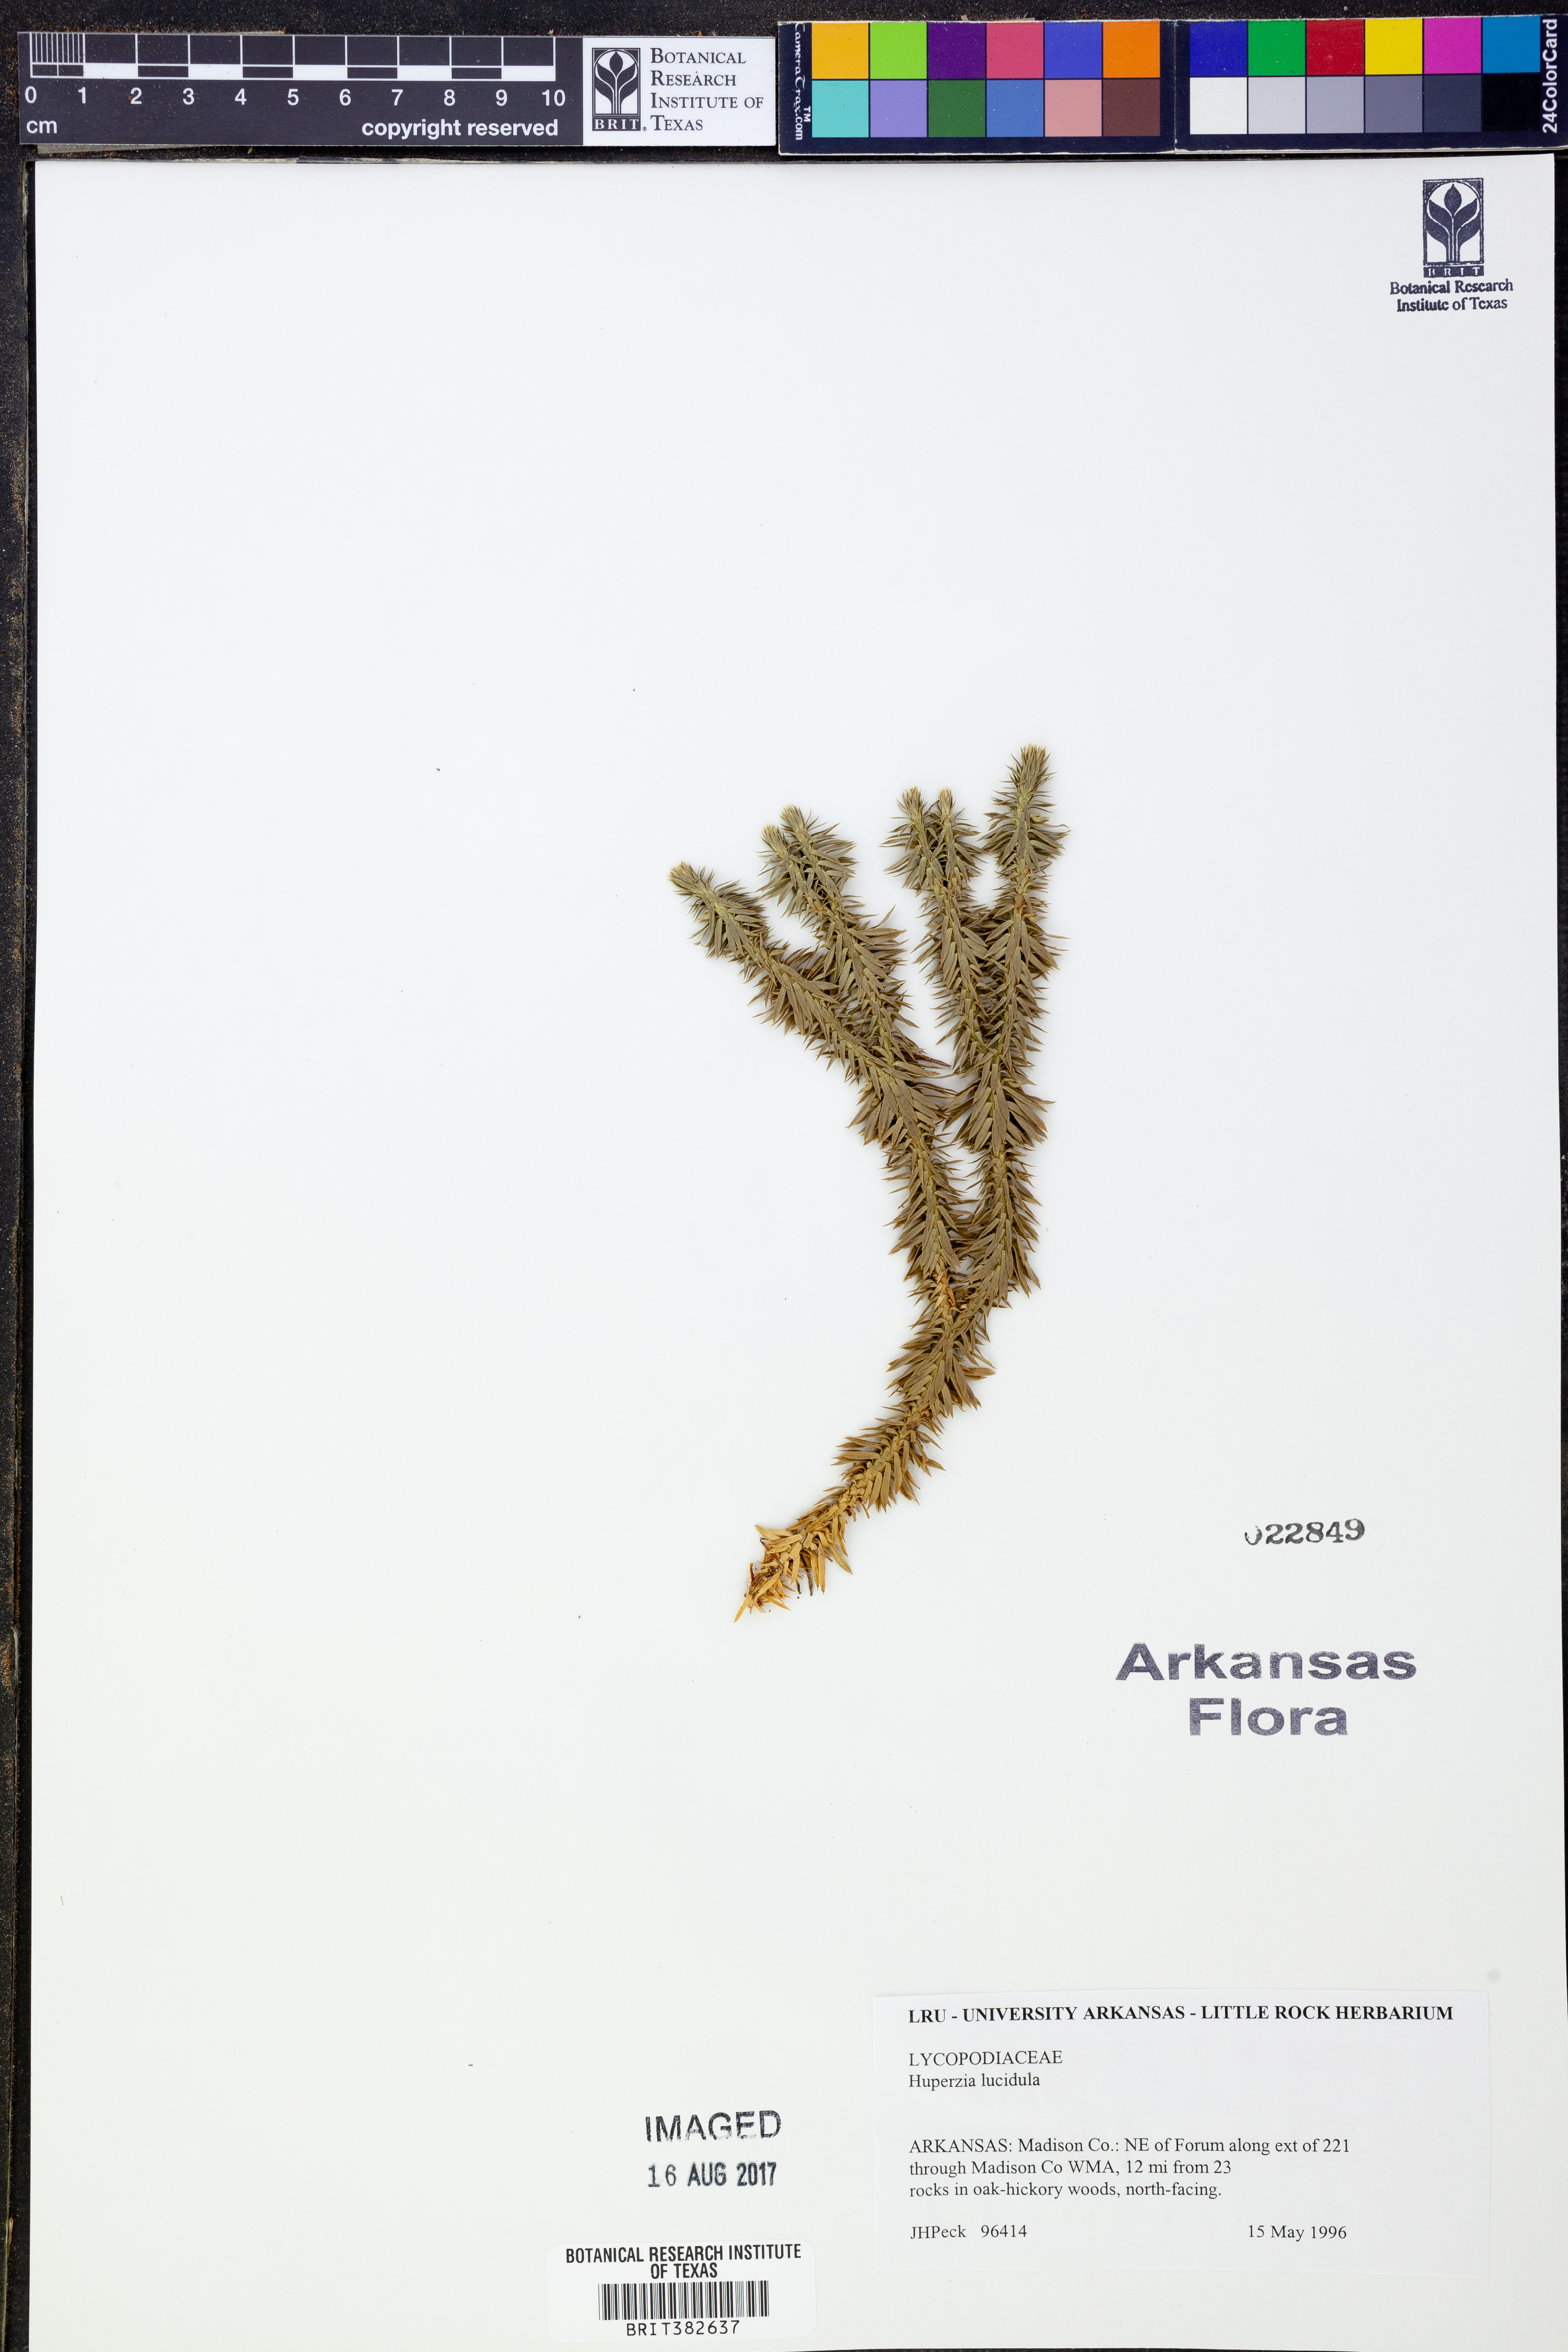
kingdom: Plantae
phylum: Tracheophyta
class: Lycopodiopsida
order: Lycopodiales
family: Lycopodiaceae
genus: Huperzia
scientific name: Huperzia lucidula
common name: Shining clubmoss
